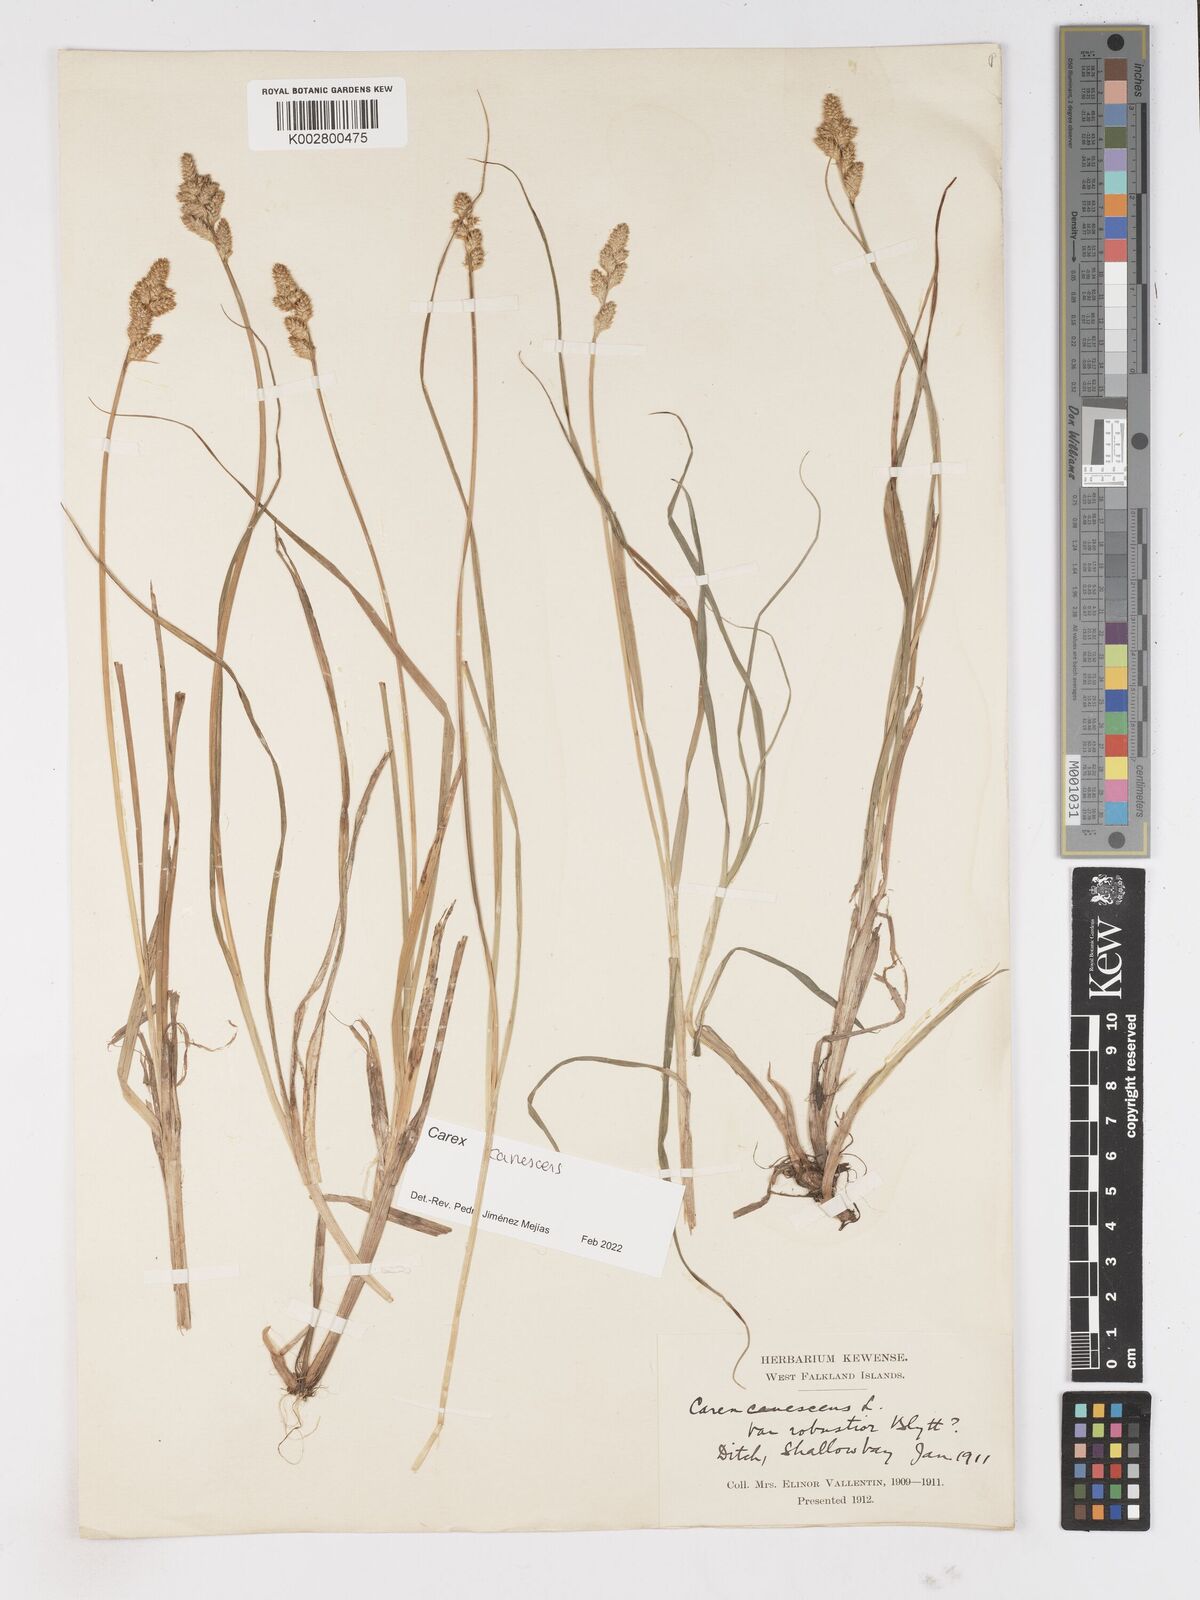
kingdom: Plantae
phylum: Tracheophyta
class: Liliopsida
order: Poales
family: Cyperaceae
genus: Carex
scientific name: Carex curta
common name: White sedge
